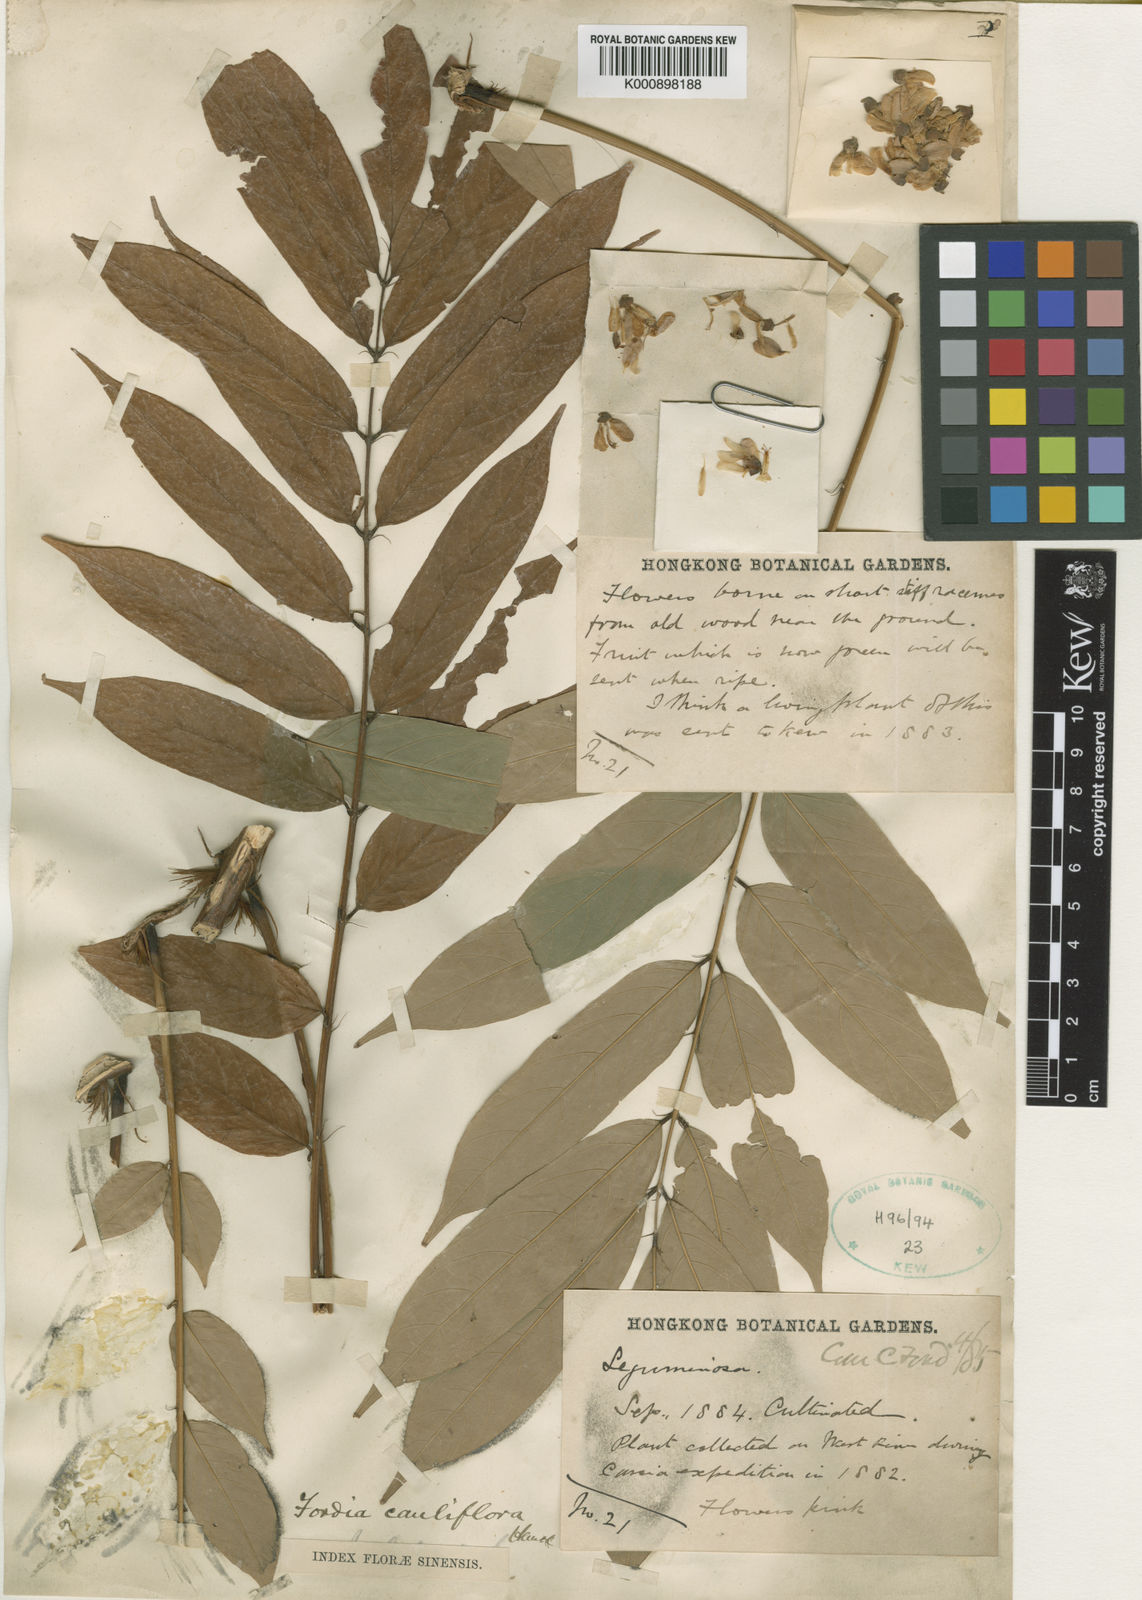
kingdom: Plantae
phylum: Tracheophyta
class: Magnoliopsida
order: Fabales
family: Fabaceae
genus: Fordia
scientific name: Fordia cauliflora
